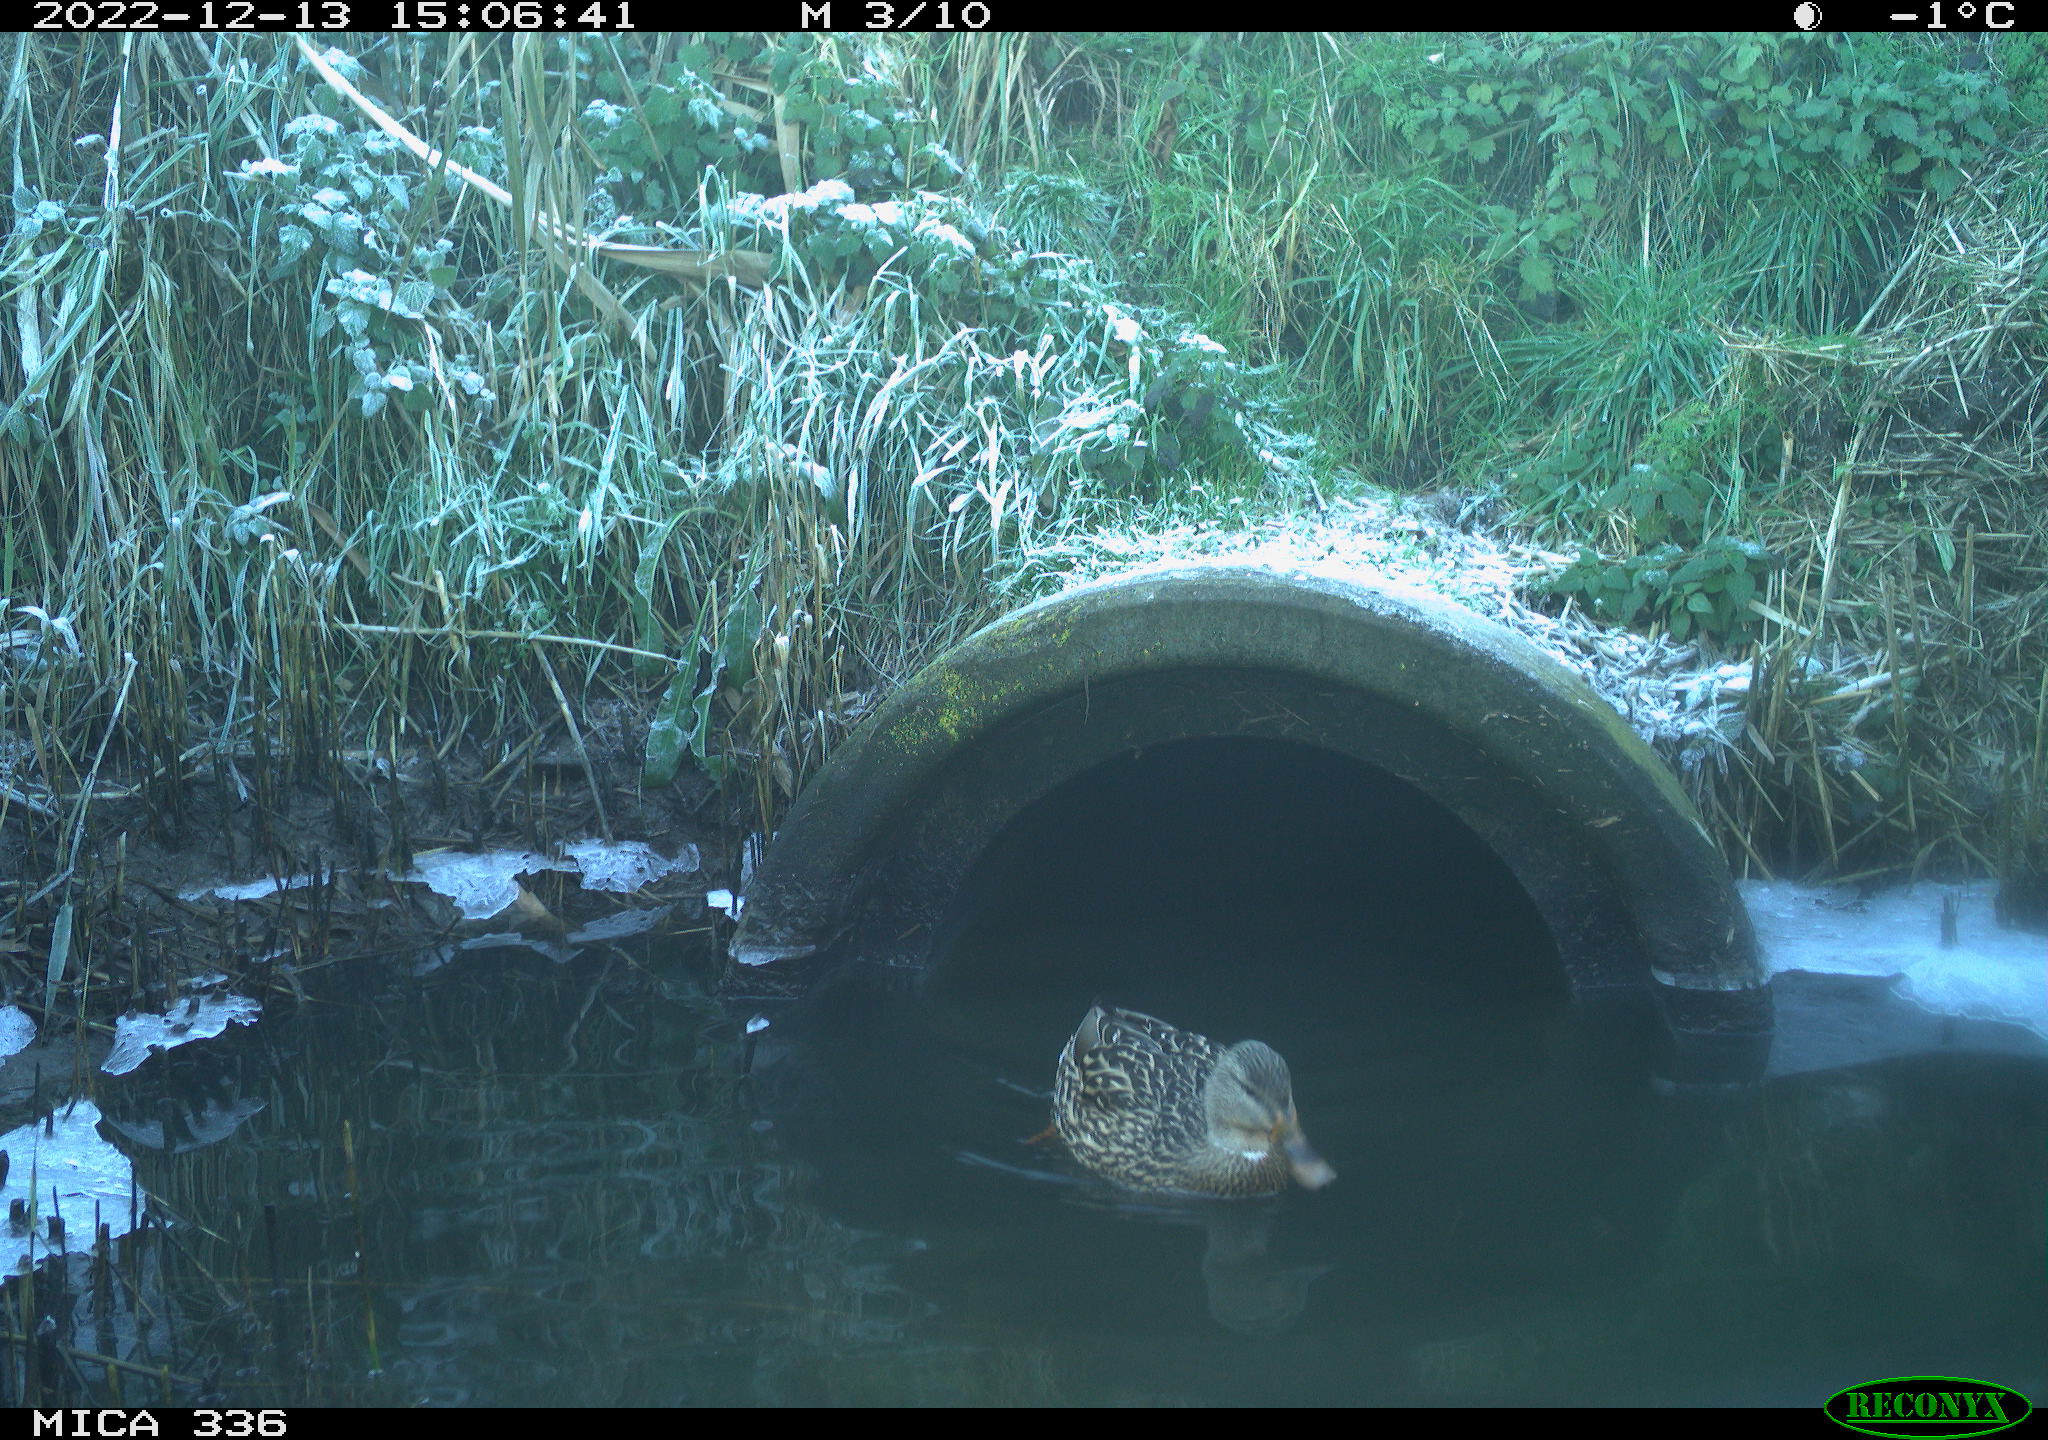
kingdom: Animalia
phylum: Chordata
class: Aves
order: Anseriformes
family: Anatidae
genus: Anas
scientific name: Anas
